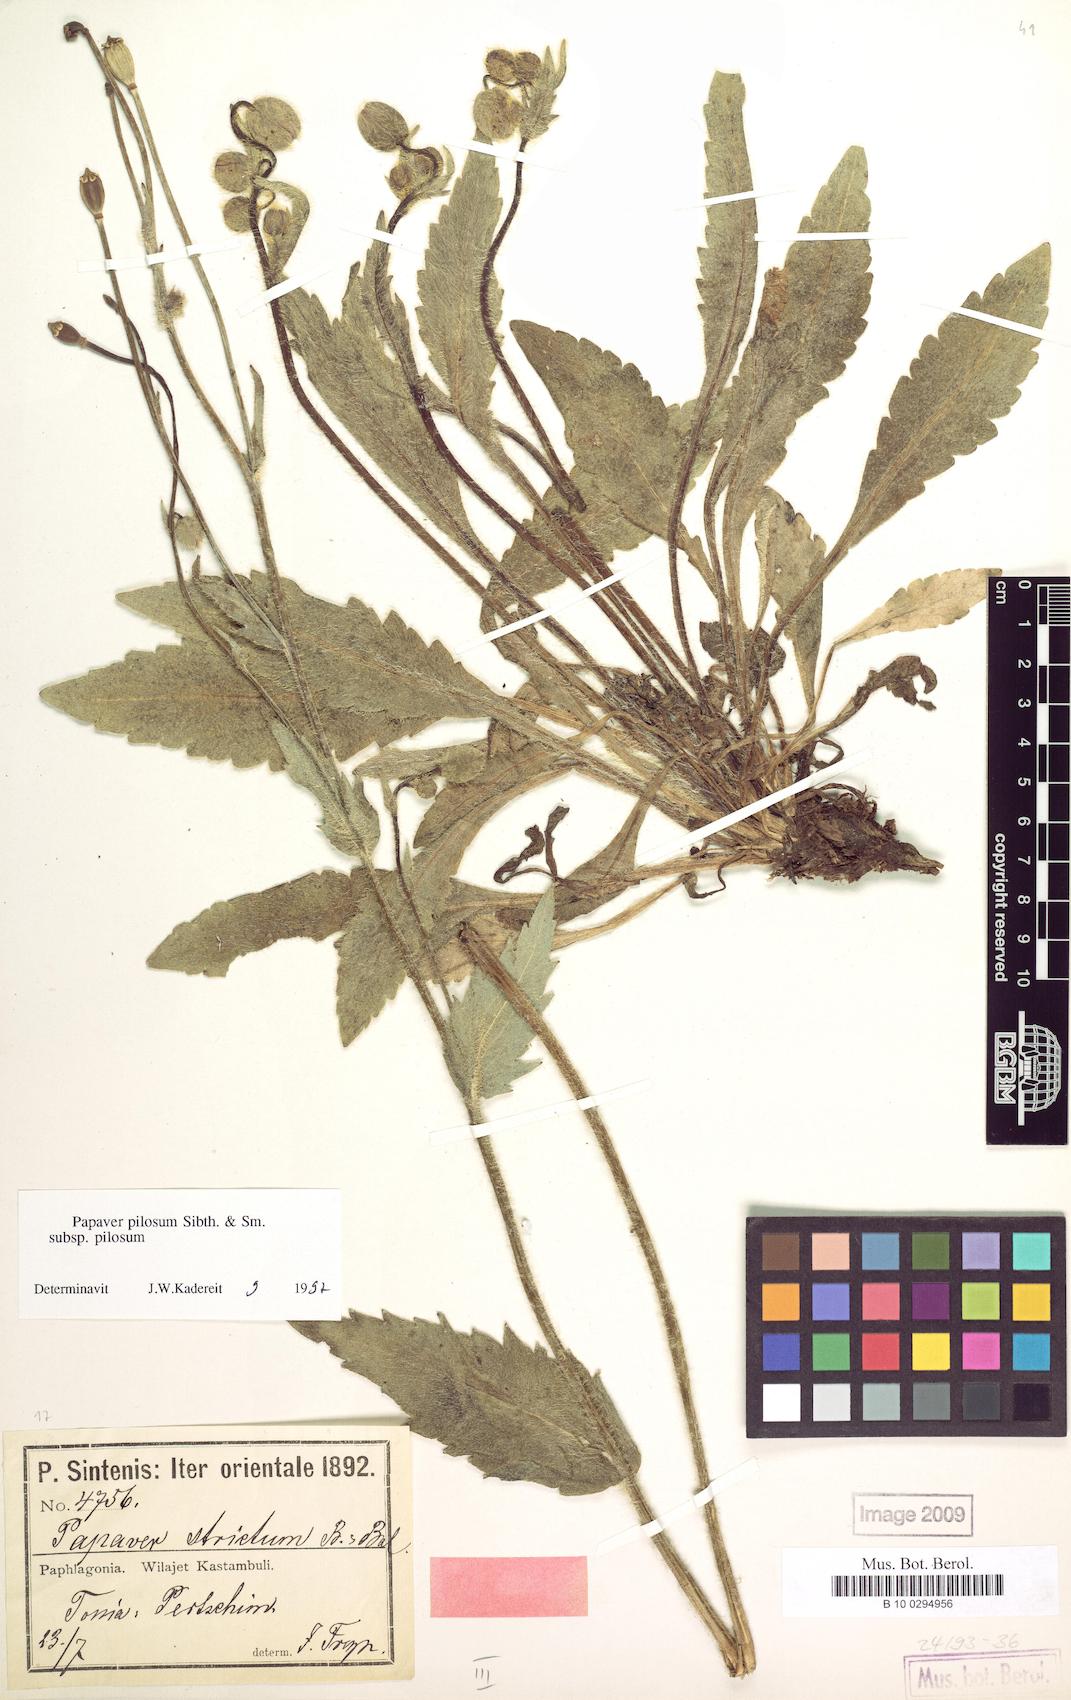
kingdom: Plantae
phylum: Tracheophyta
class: Magnoliopsida
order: Ranunculales
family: Papaveraceae
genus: Papaver
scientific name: Papaver pilosum
